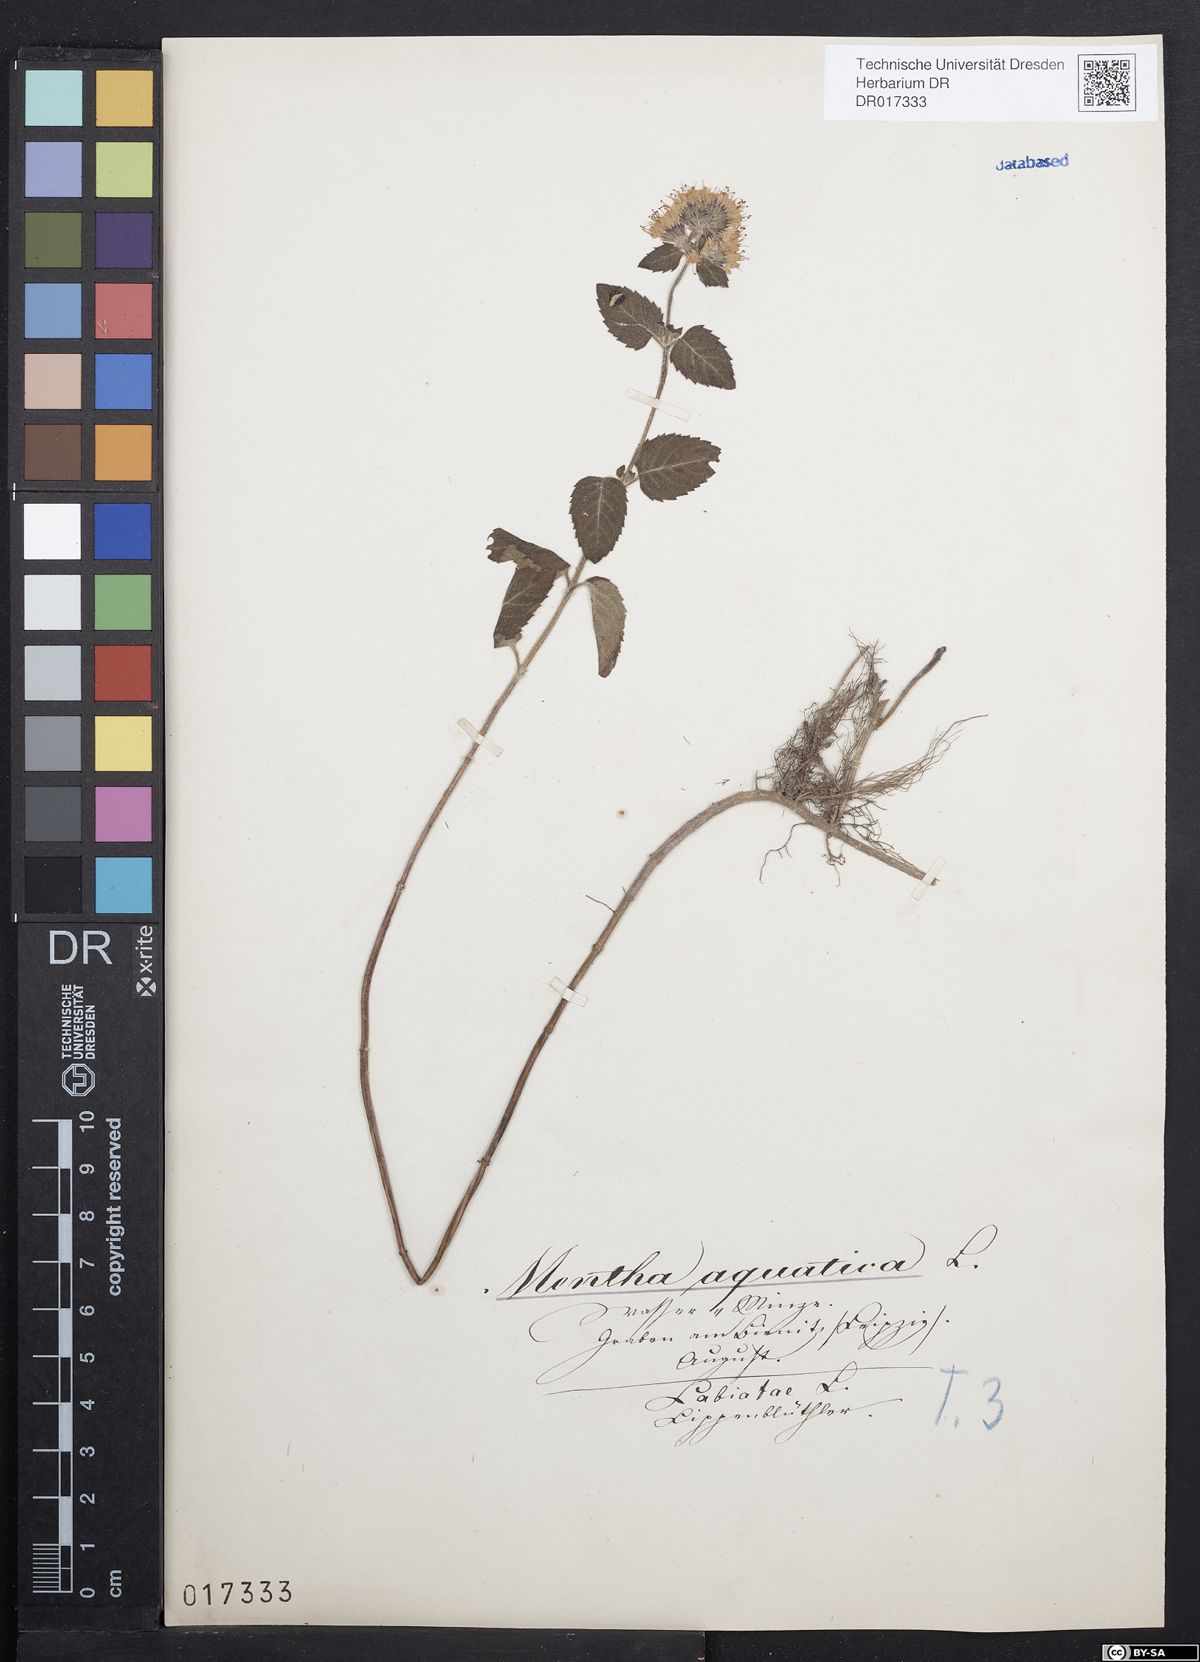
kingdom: Plantae
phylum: Tracheophyta
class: Magnoliopsida
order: Lamiales
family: Lamiaceae
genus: Mentha
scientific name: Mentha aquatica
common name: Water mint
